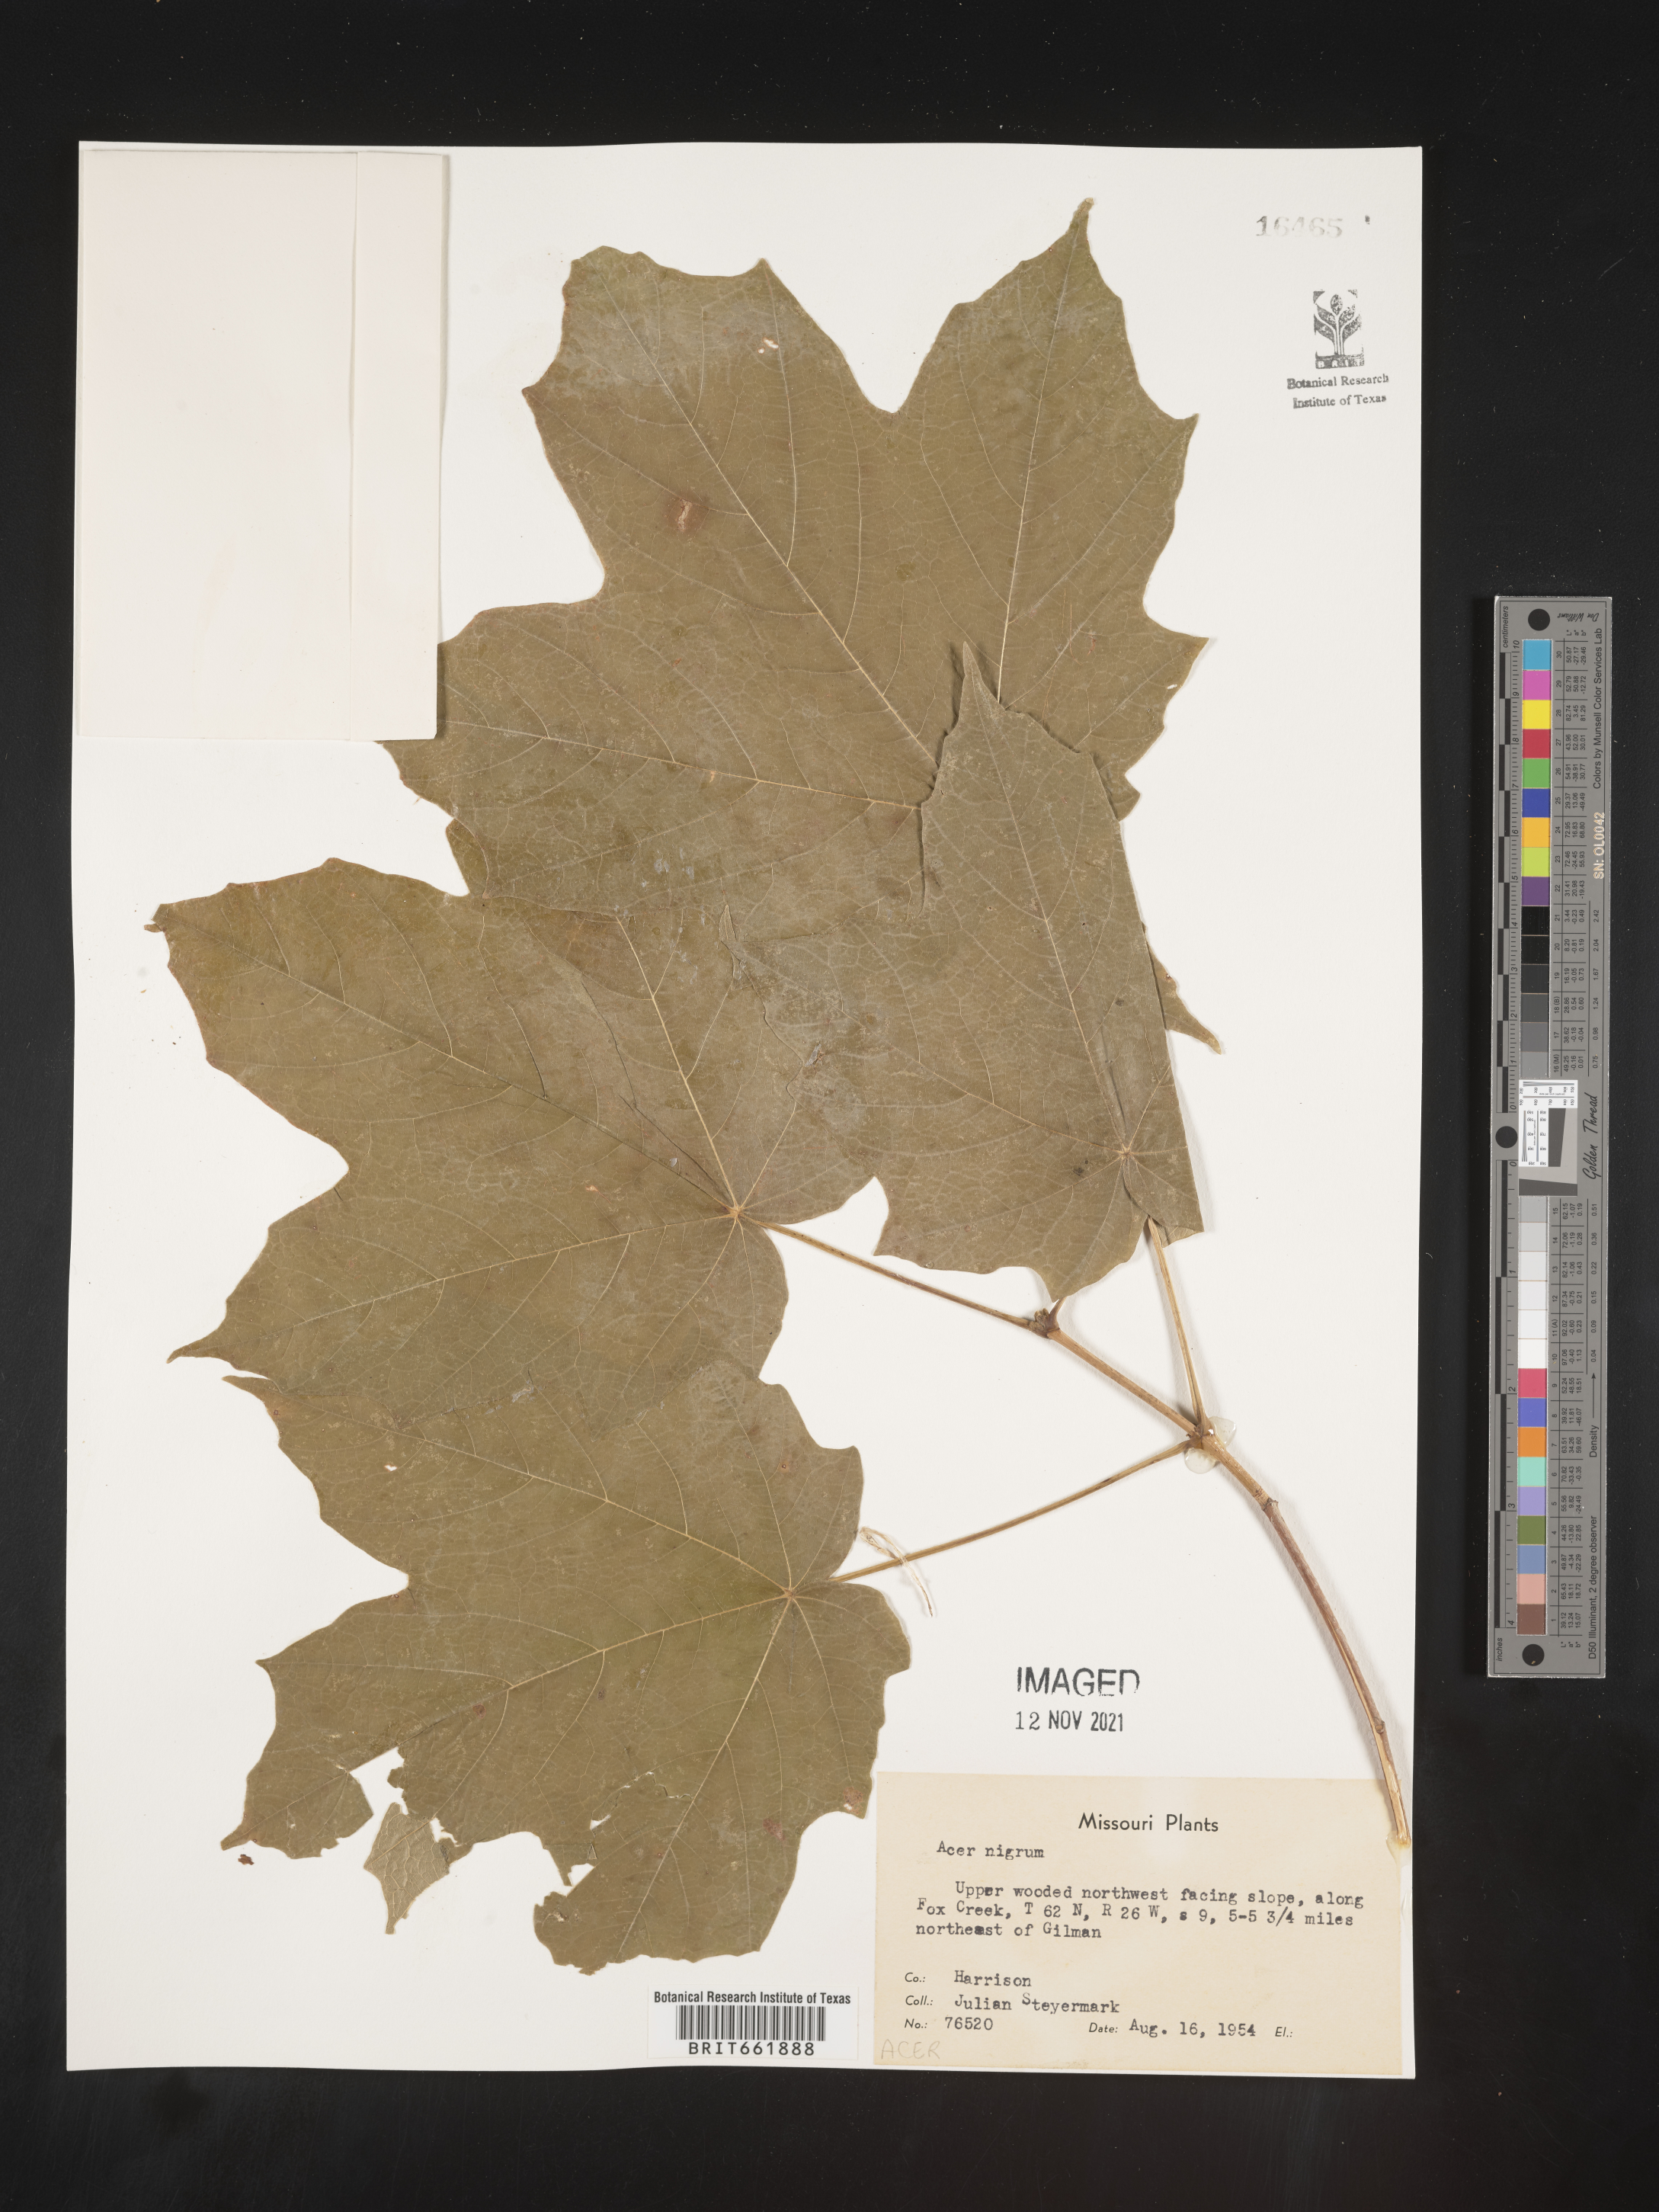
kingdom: Plantae
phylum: Tracheophyta
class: Magnoliopsida
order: Sapindales
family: Sapindaceae
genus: Acer
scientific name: Acer nigrum
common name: Black maple
